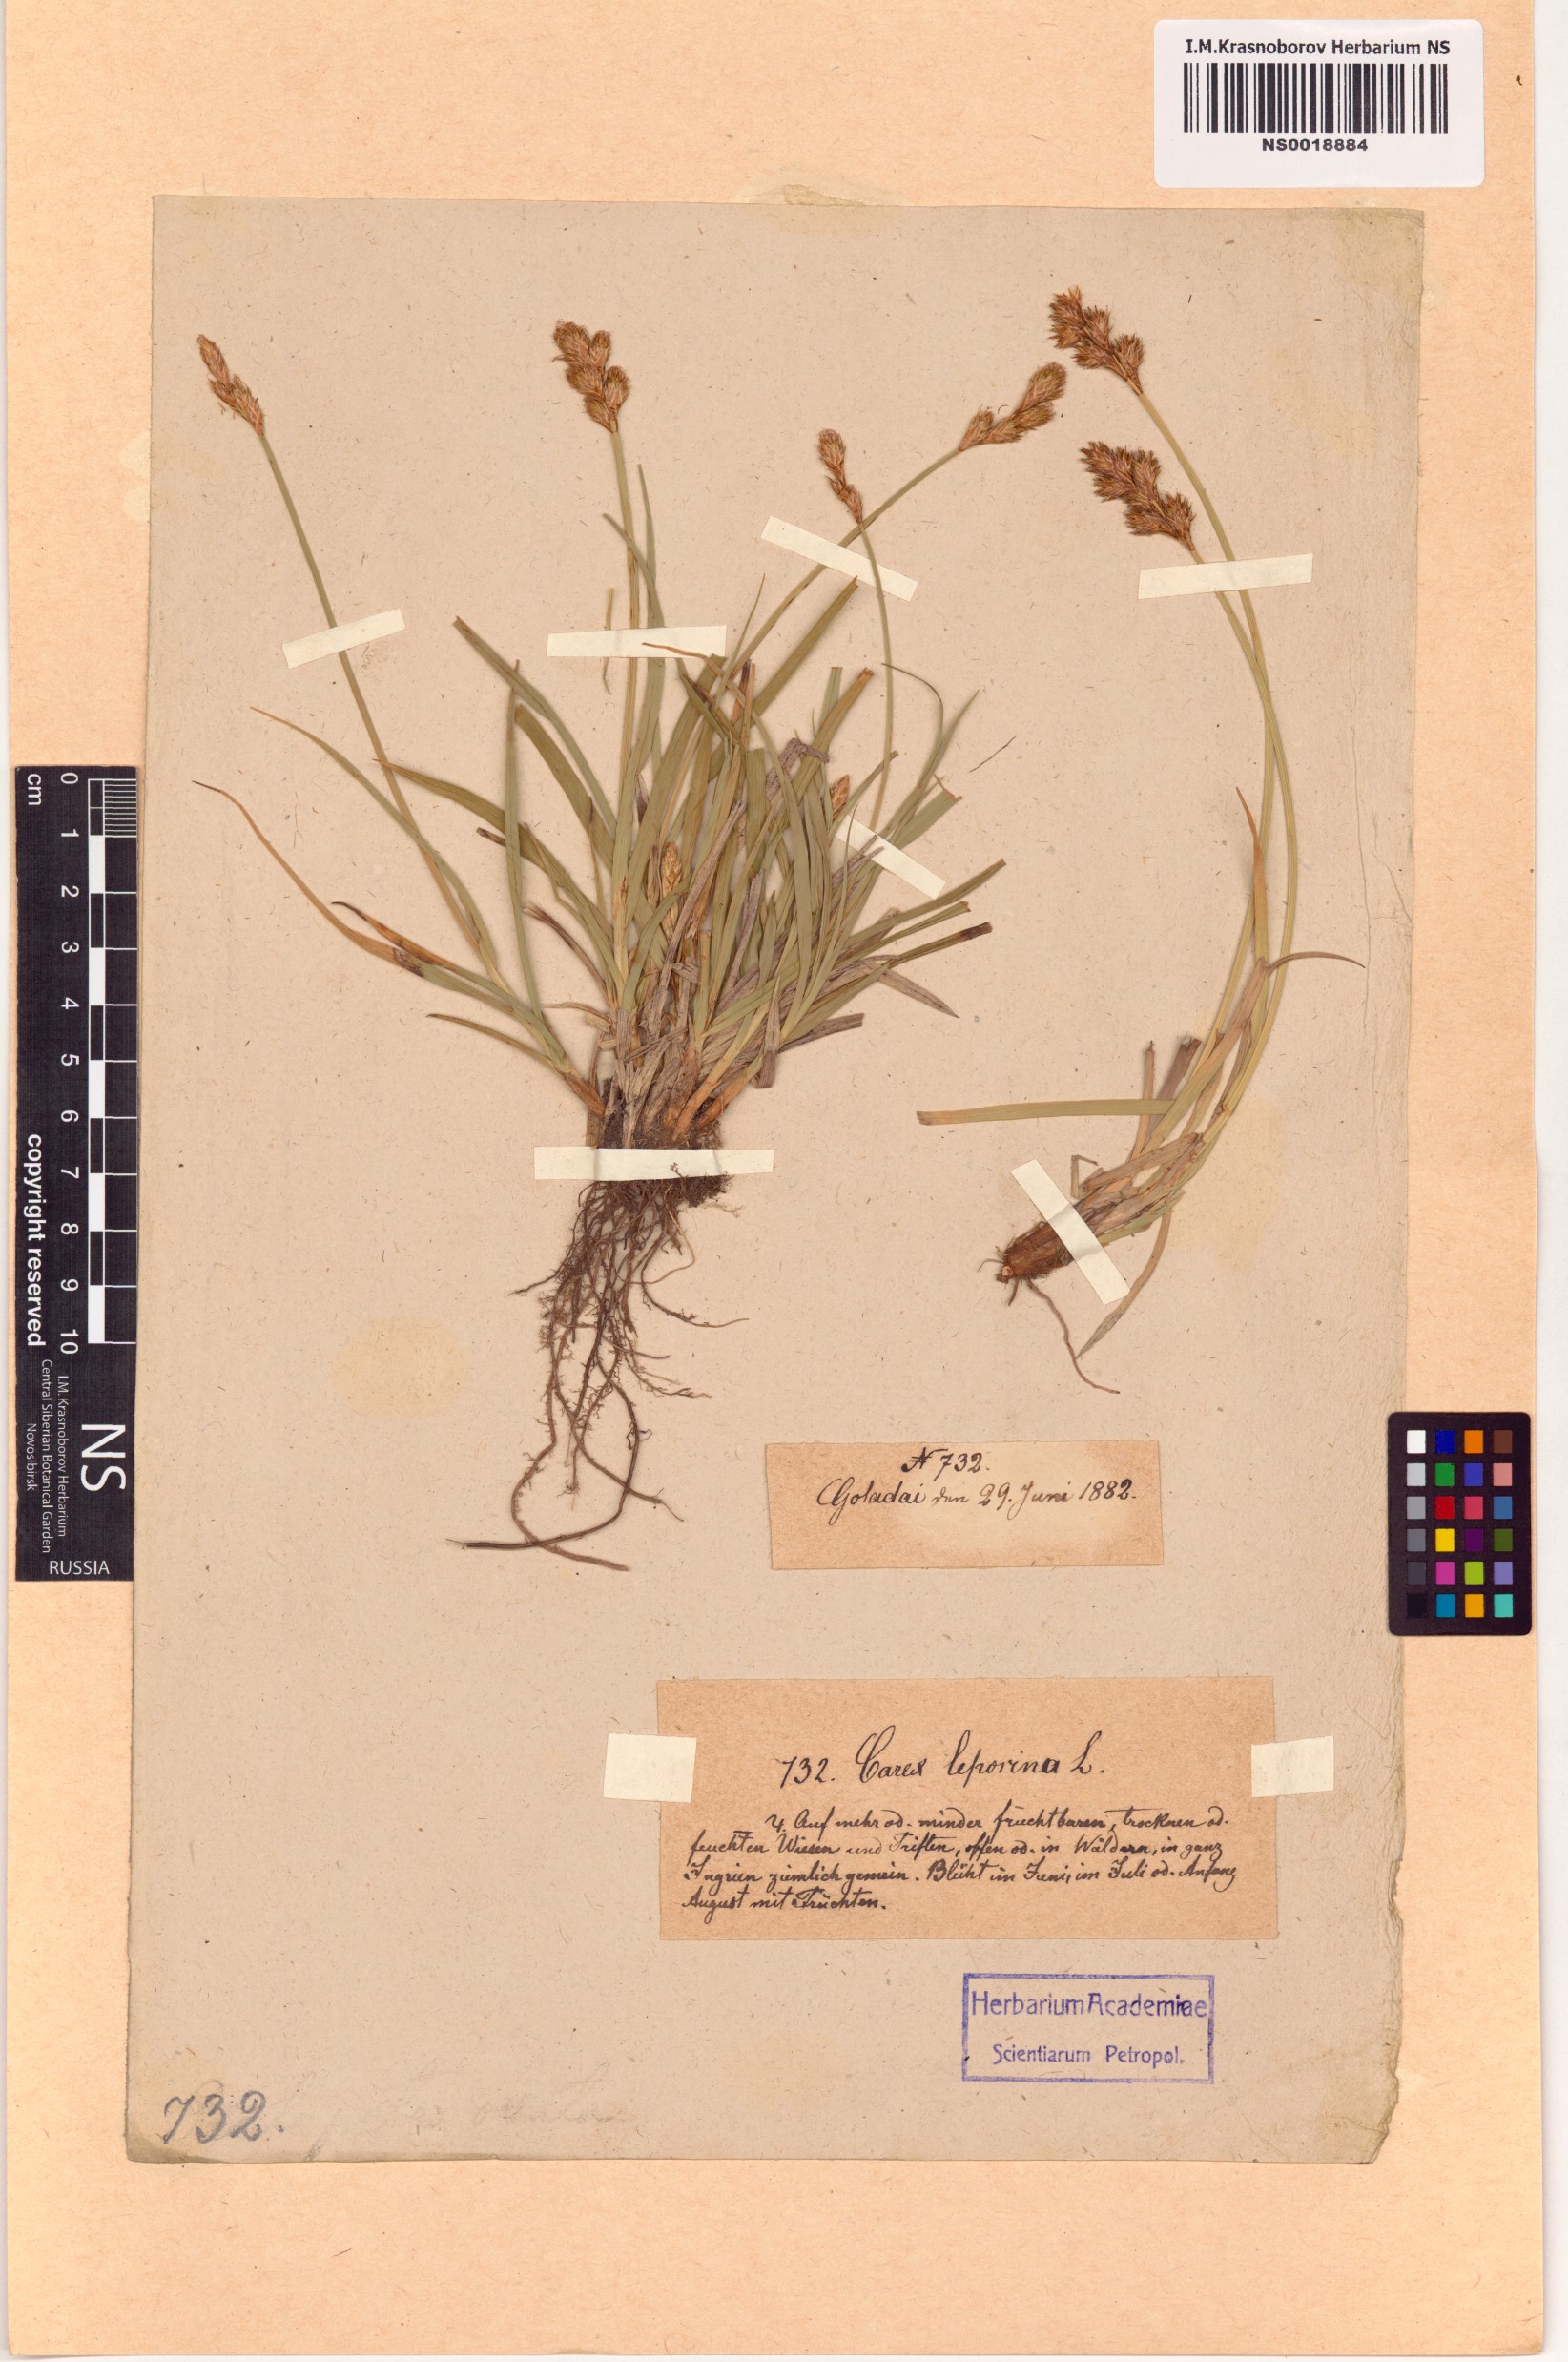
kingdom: Plantae
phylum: Tracheophyta
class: Liliopsida
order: Poales
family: Cyperaceae
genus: Carex
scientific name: Carex leporina
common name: Oval sedge
